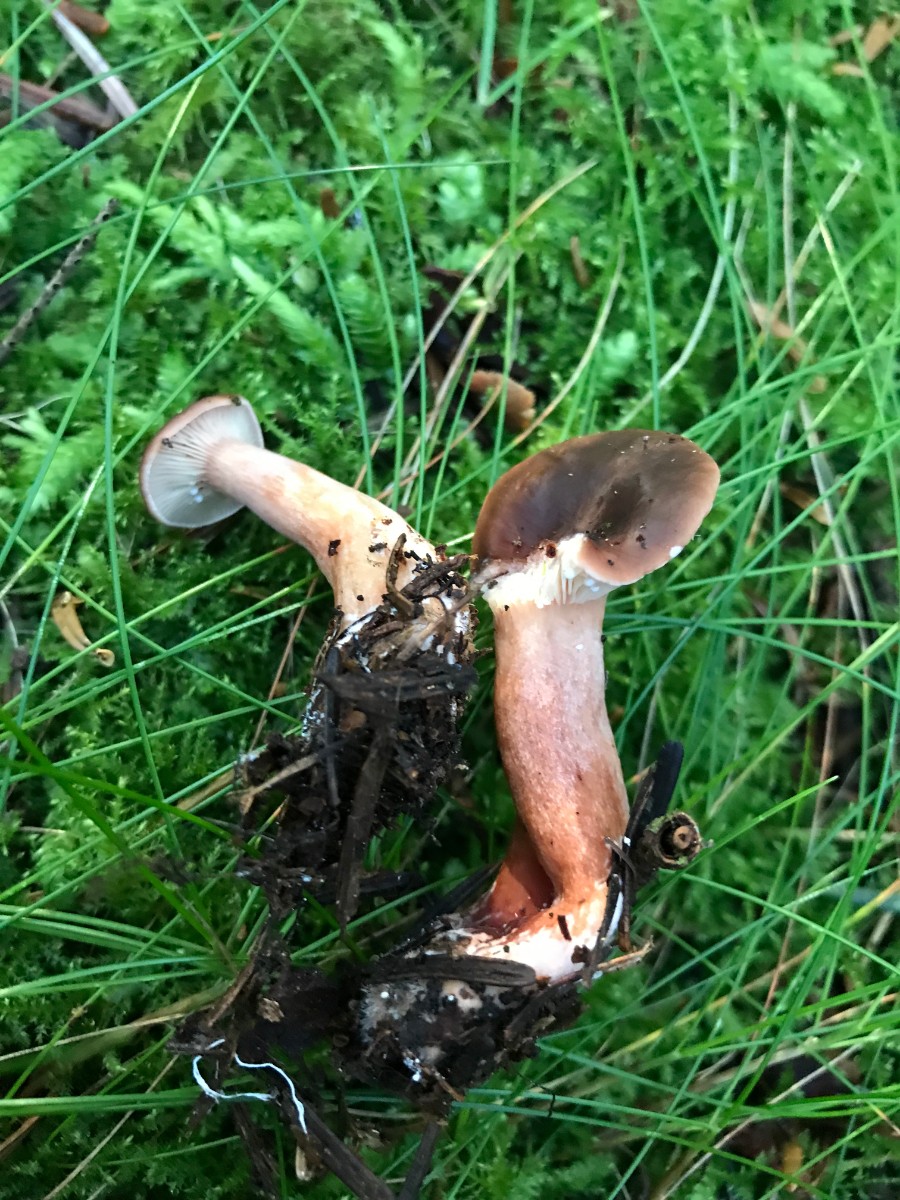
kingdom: Fungi
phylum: Basidiomycota
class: Agaricomycetes
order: Russulales
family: Russulaceae
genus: Lactarius
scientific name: Lactarius hepaticus
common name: leverbrun mælkehat
